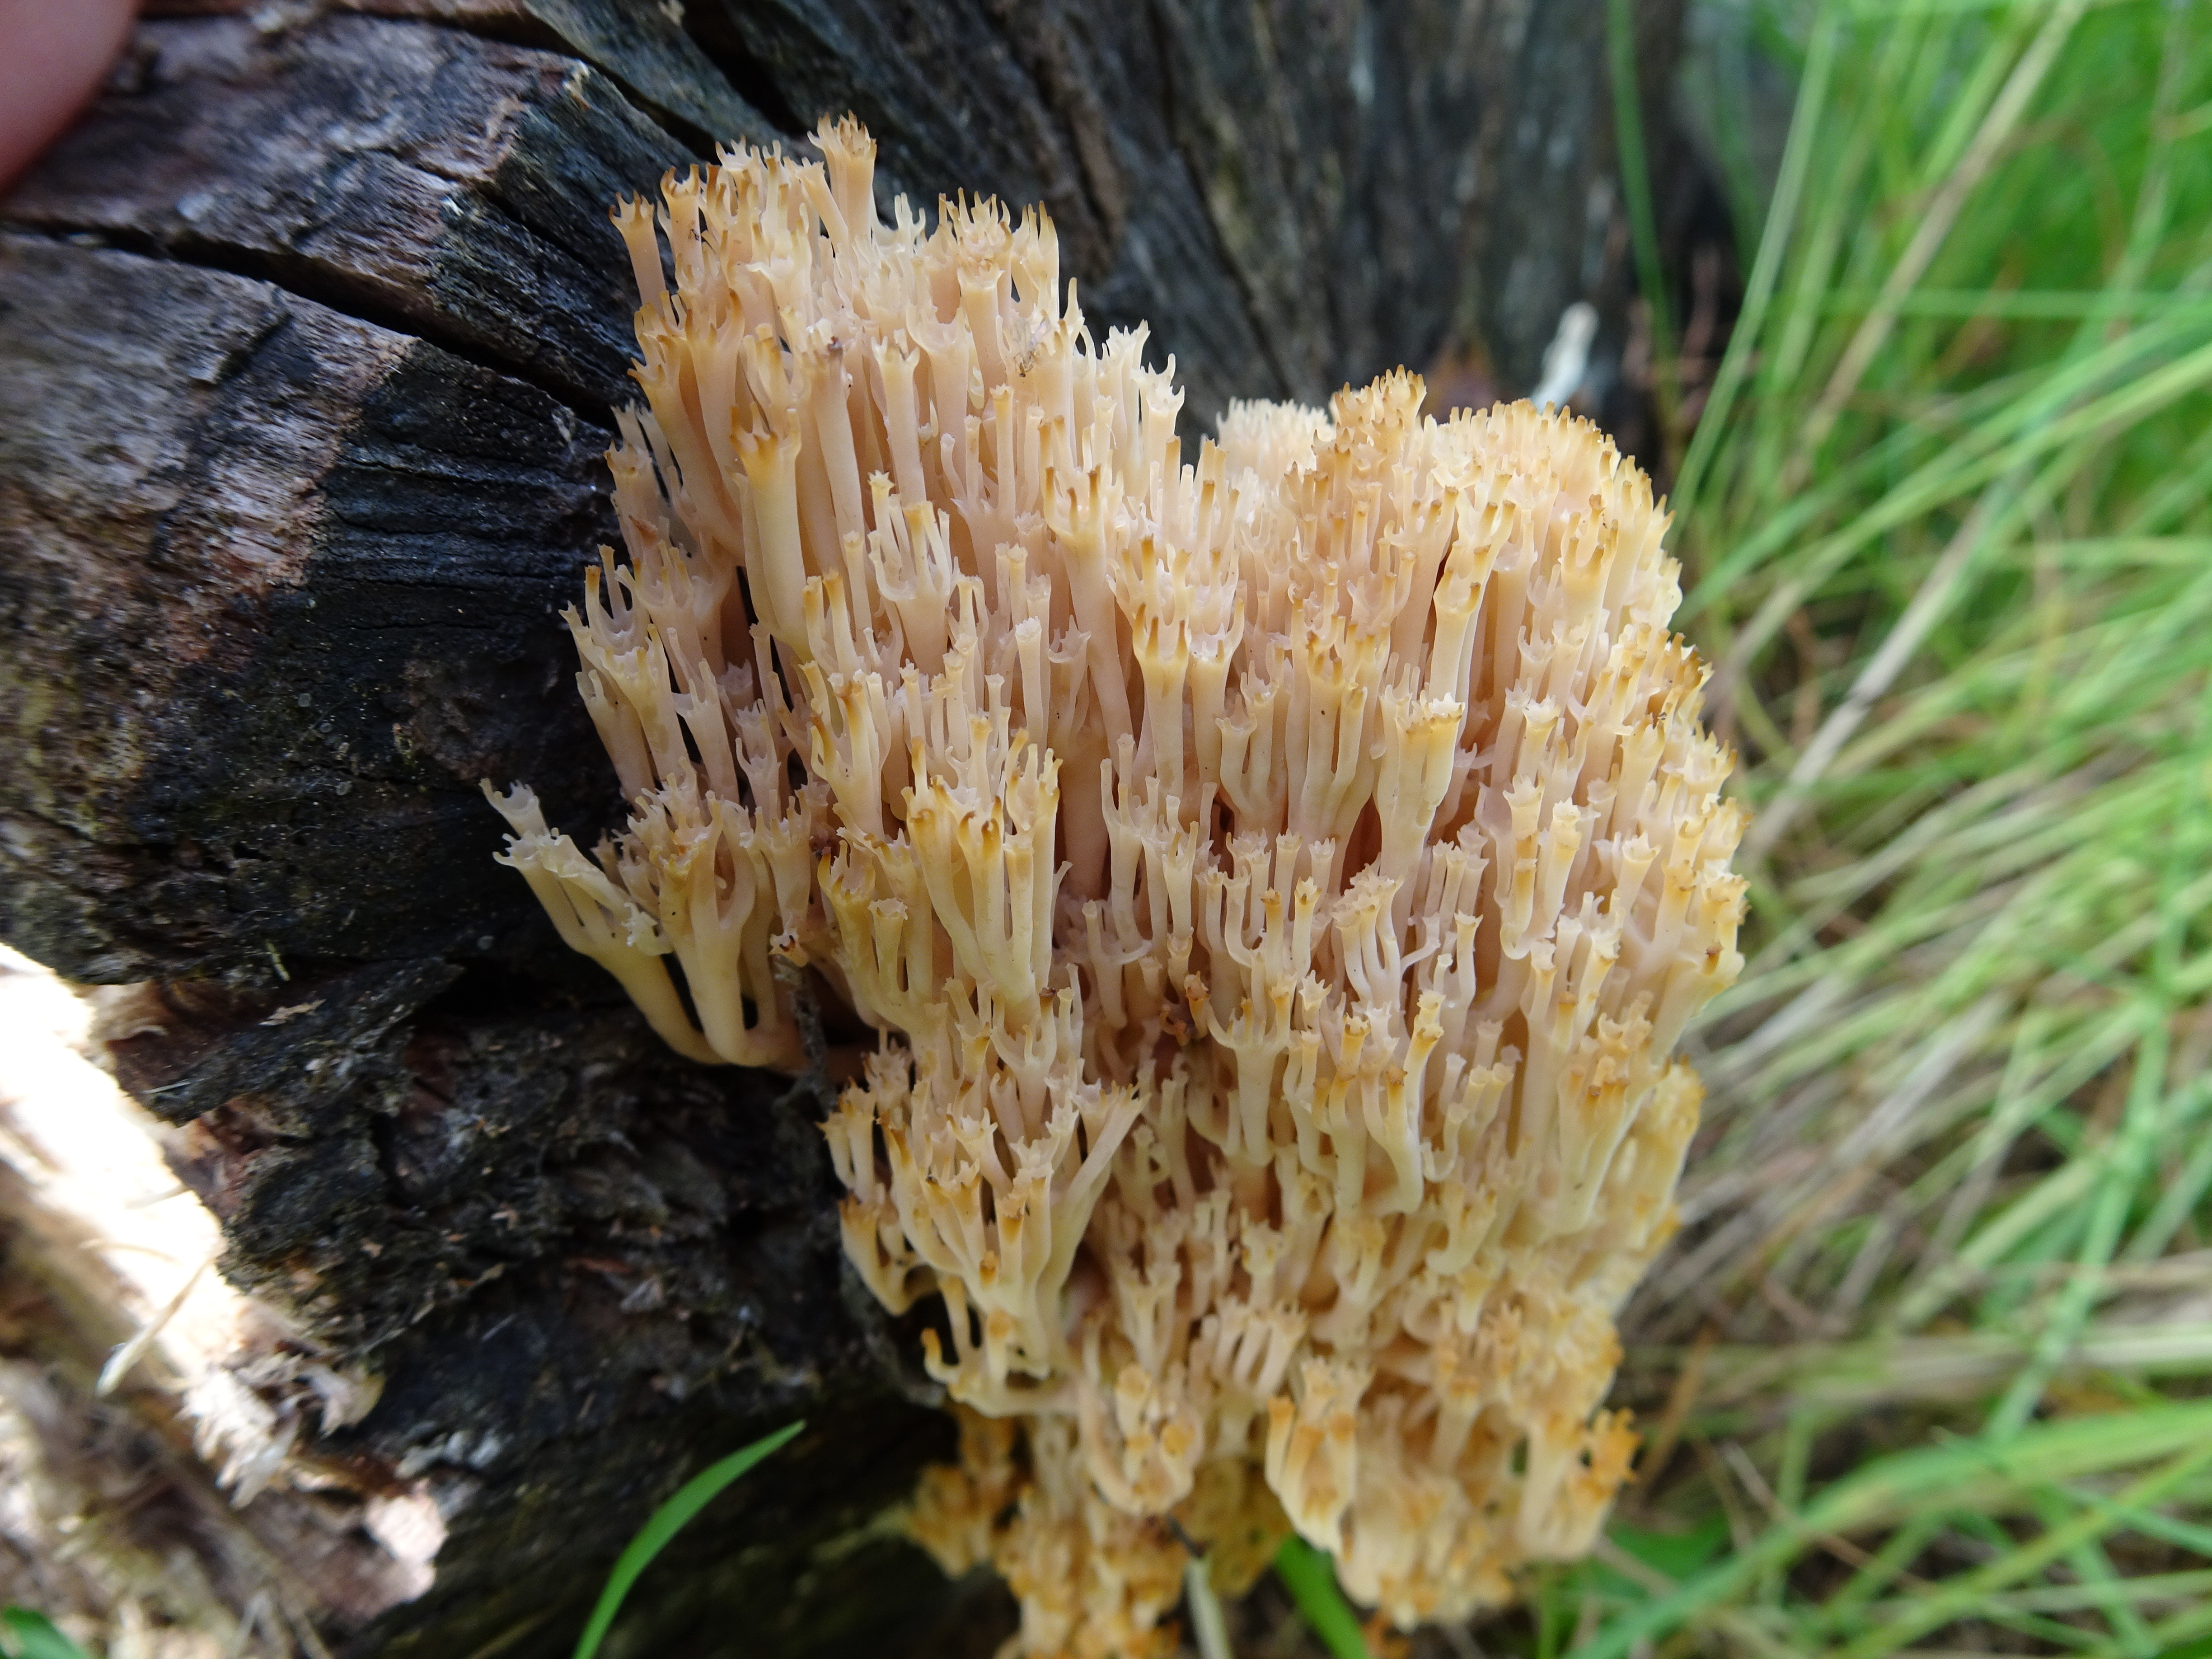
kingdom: Fungi
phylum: Basidiomycota
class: Agaricomycetes
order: Russulales
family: Auriscalpiaceae
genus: Artomyces
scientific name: Artomyces pyxidatus
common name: Crown-tipped coral fungus
